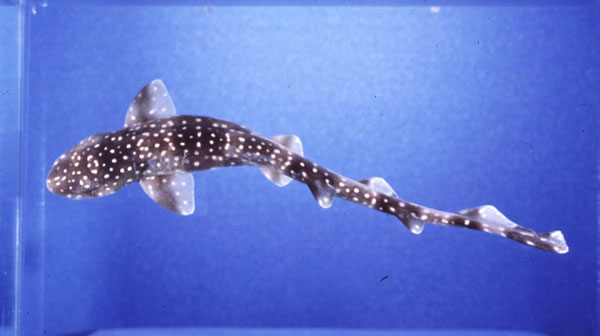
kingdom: Animalia
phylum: Chordata
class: Elasmobranchii
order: Carcharhiniformes
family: Scyliorhinidae
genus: Scyliorhinus
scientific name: Scyliorhinus capensis
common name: Yellowspotted catshark
